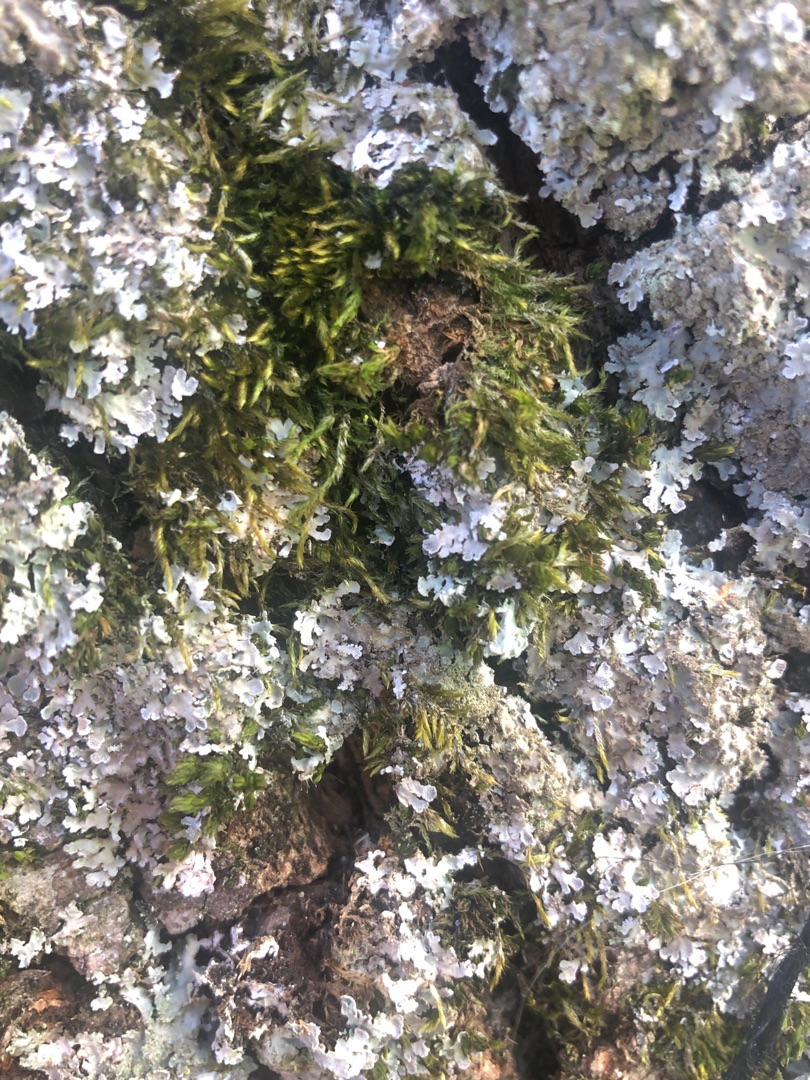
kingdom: Plantae
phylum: Bryophyta
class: Bryopsida
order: Hypnales
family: Hypnaceae
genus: Hypnum
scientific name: Hypnum
